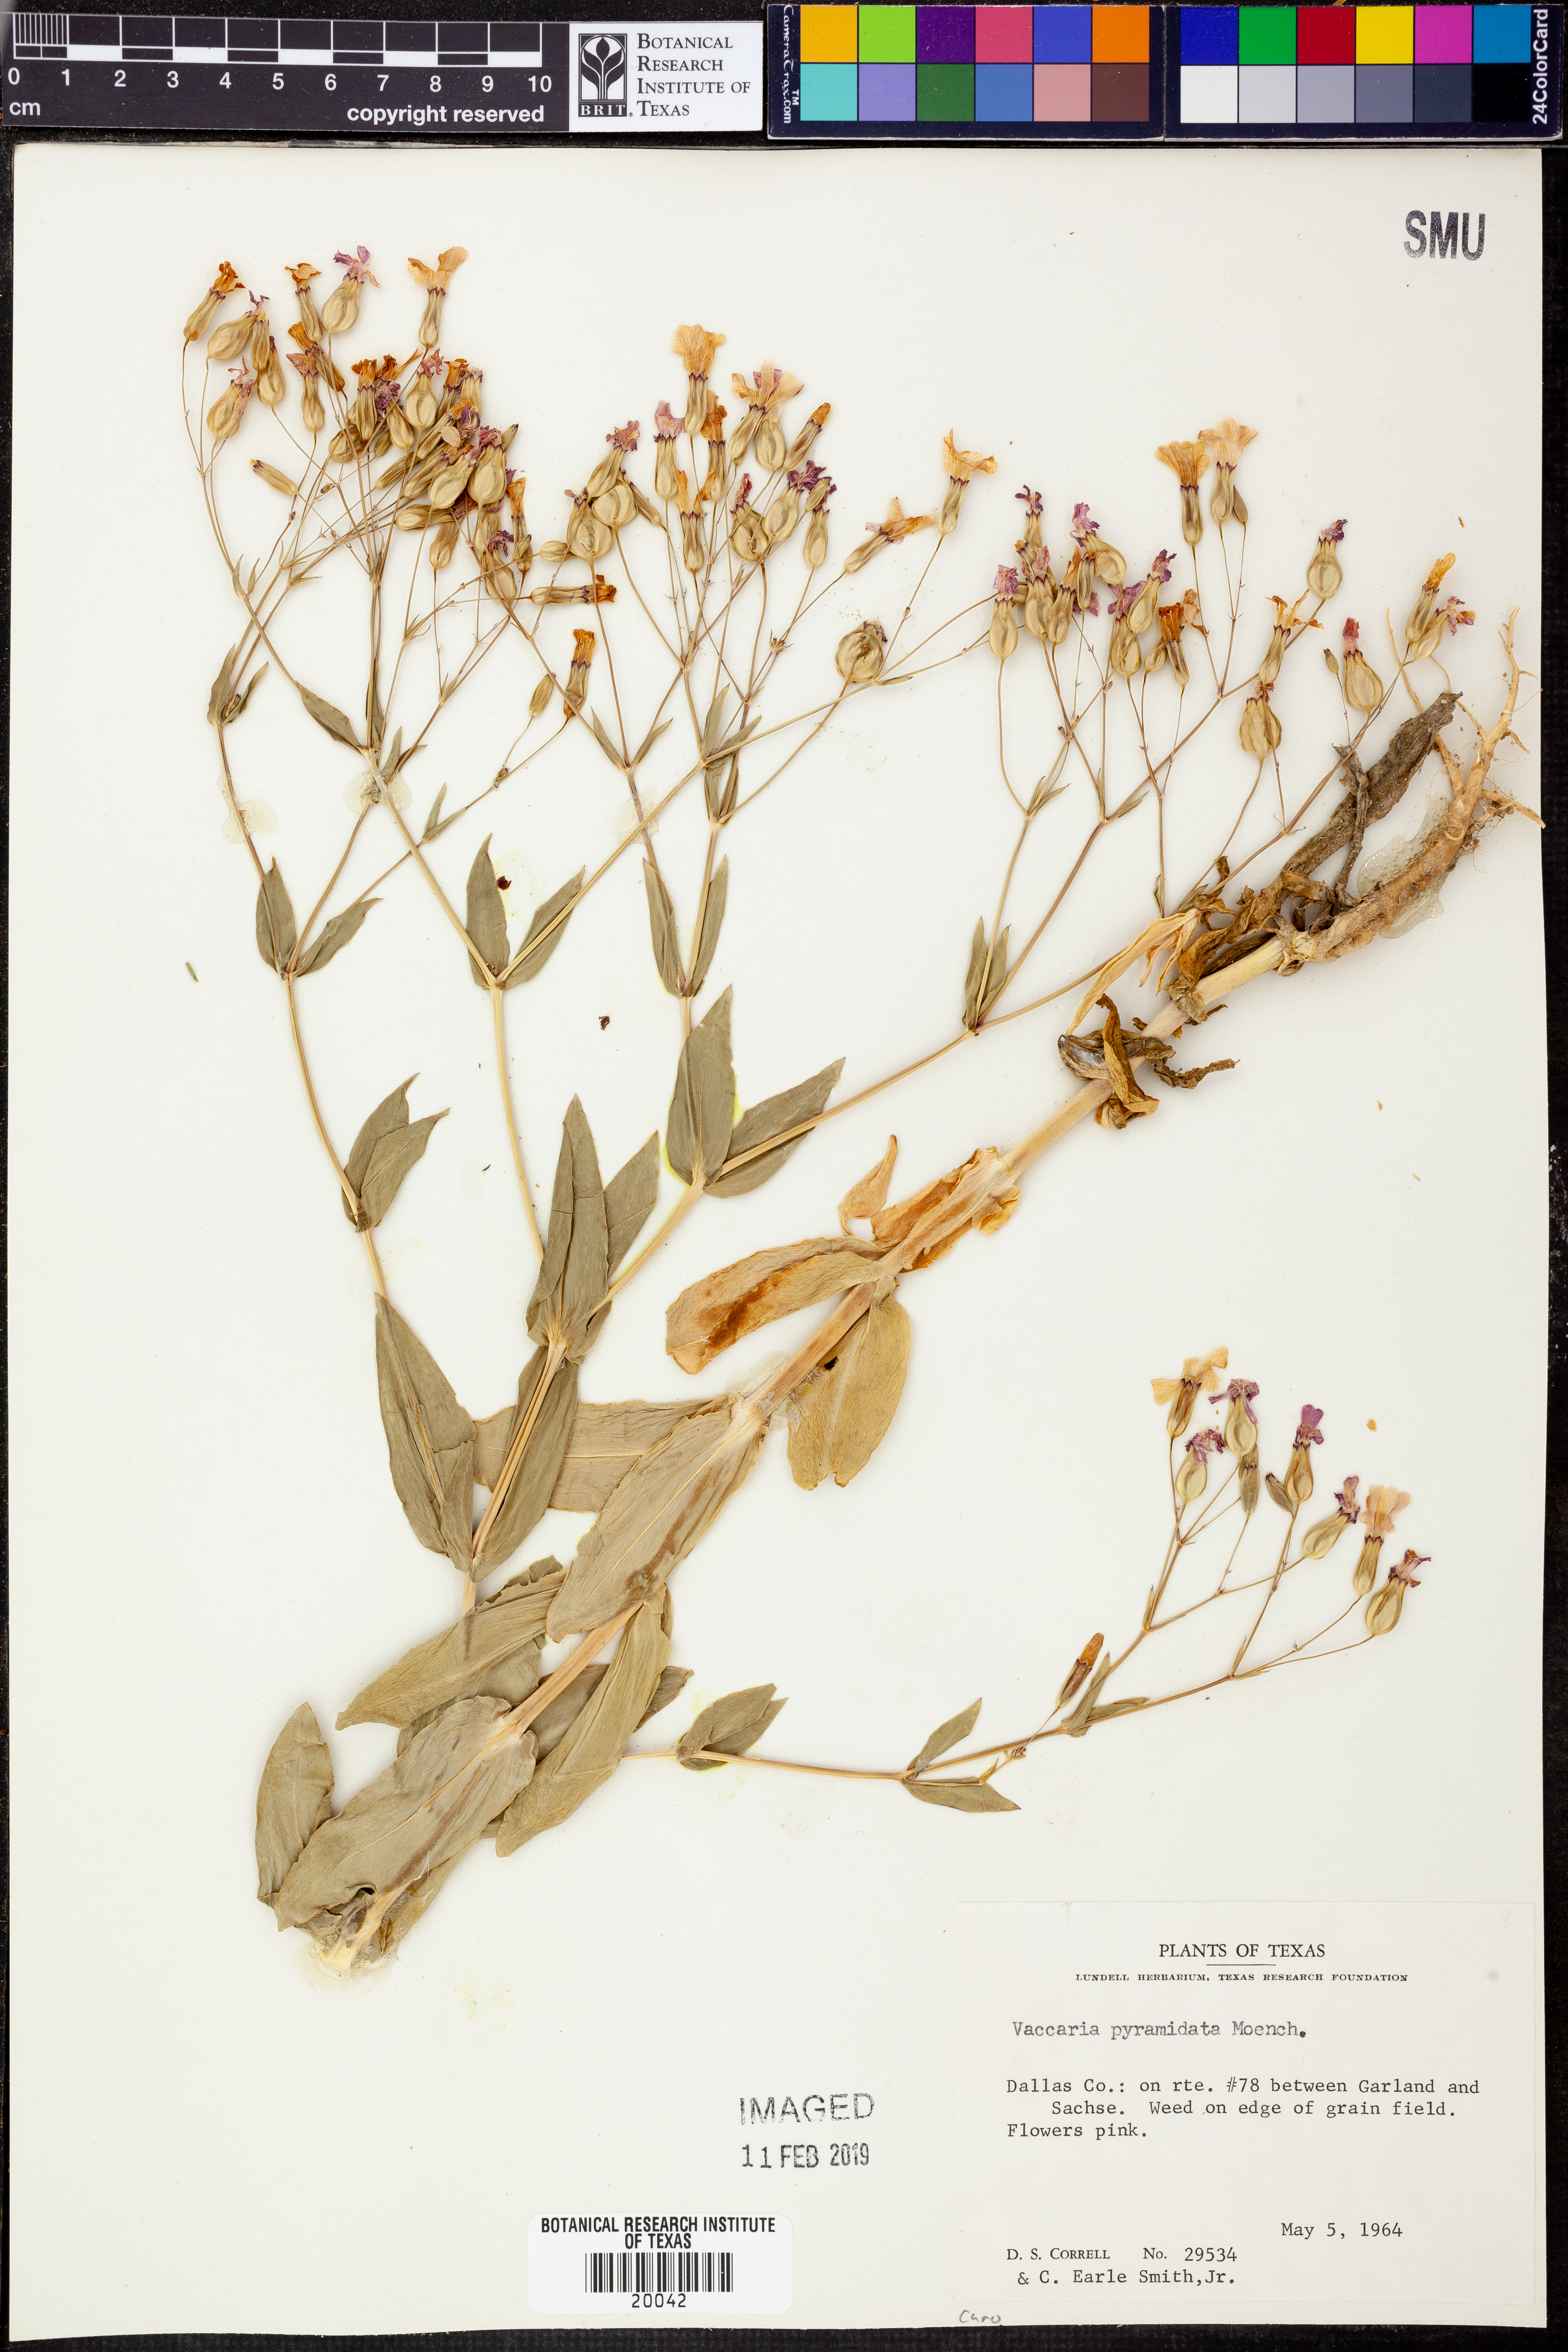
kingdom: Plantae
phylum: Tracheophyta
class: Magnoliopsida
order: Caryophyllales
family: Caryophyllaceae
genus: Gypsophila
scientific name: Gypsophila vaccaria
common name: Cow soapwort
